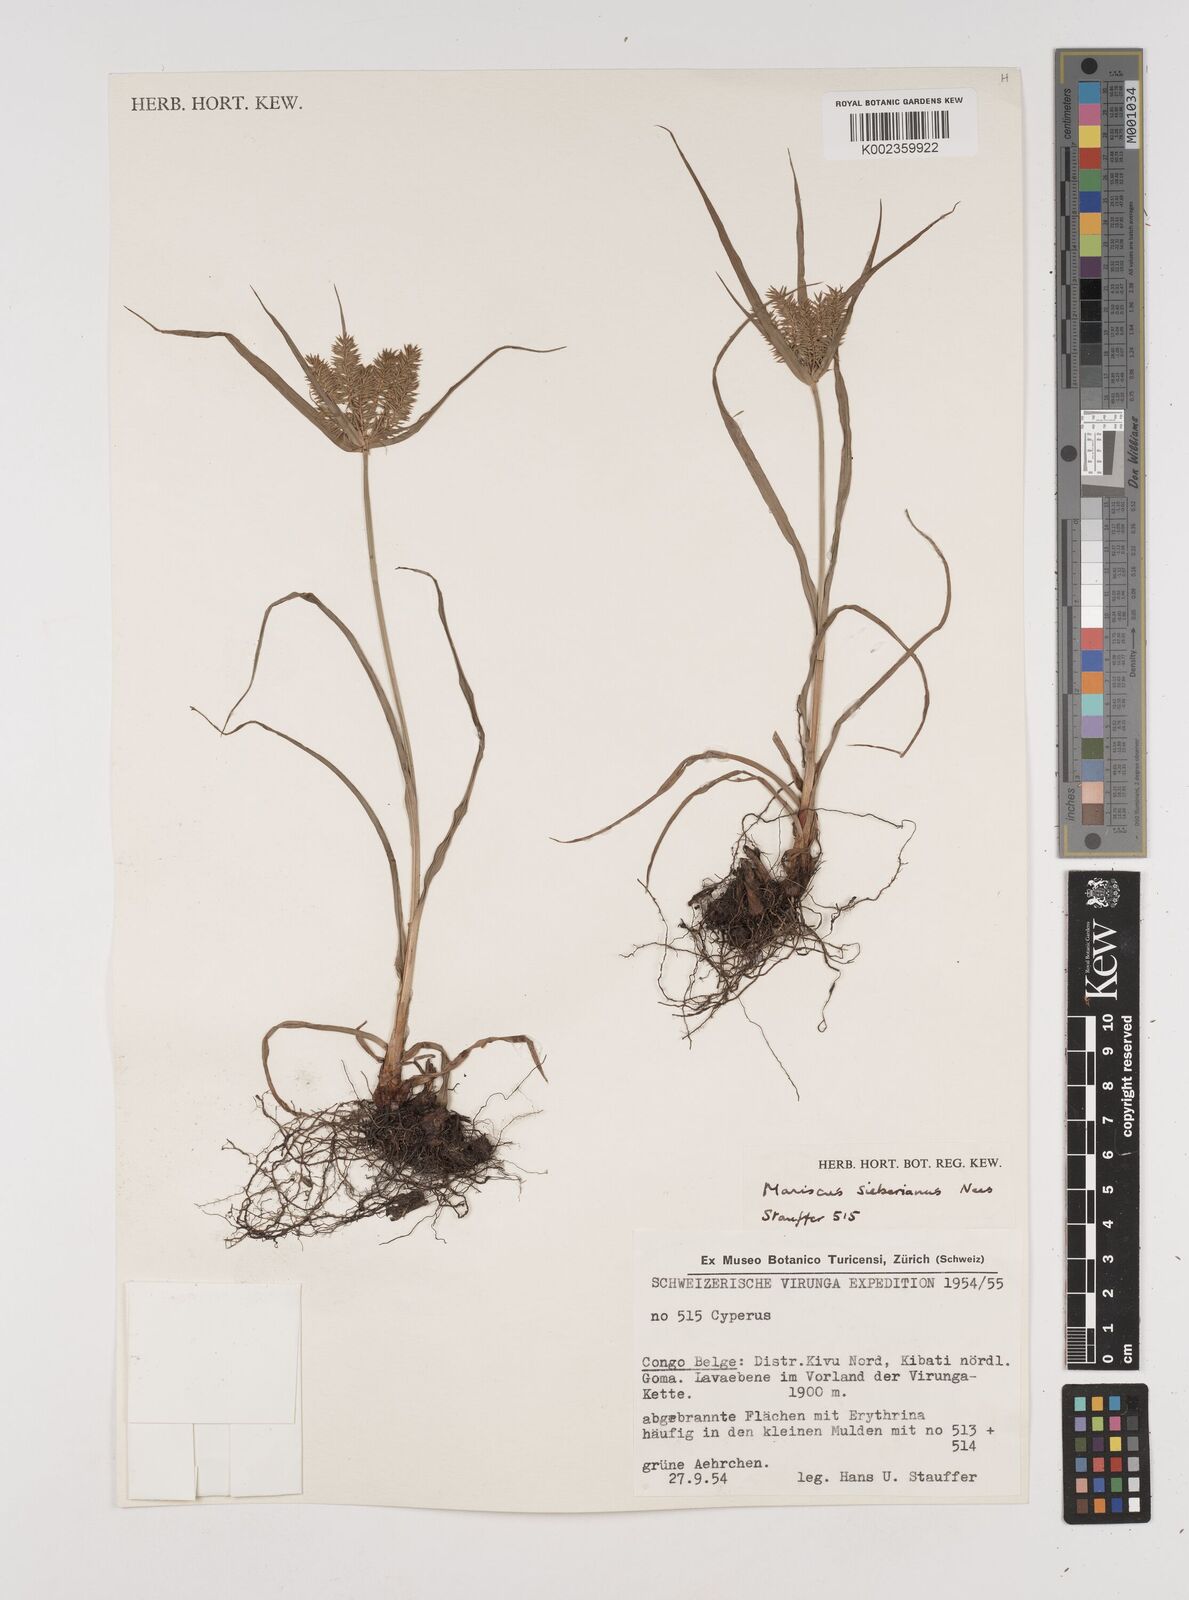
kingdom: Plantae
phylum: Tracheophyta
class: Liliopsida
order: Poales
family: Cyperaceae
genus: Cyperus
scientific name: Cyperus cyperoides
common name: Pacific island flat sedge
